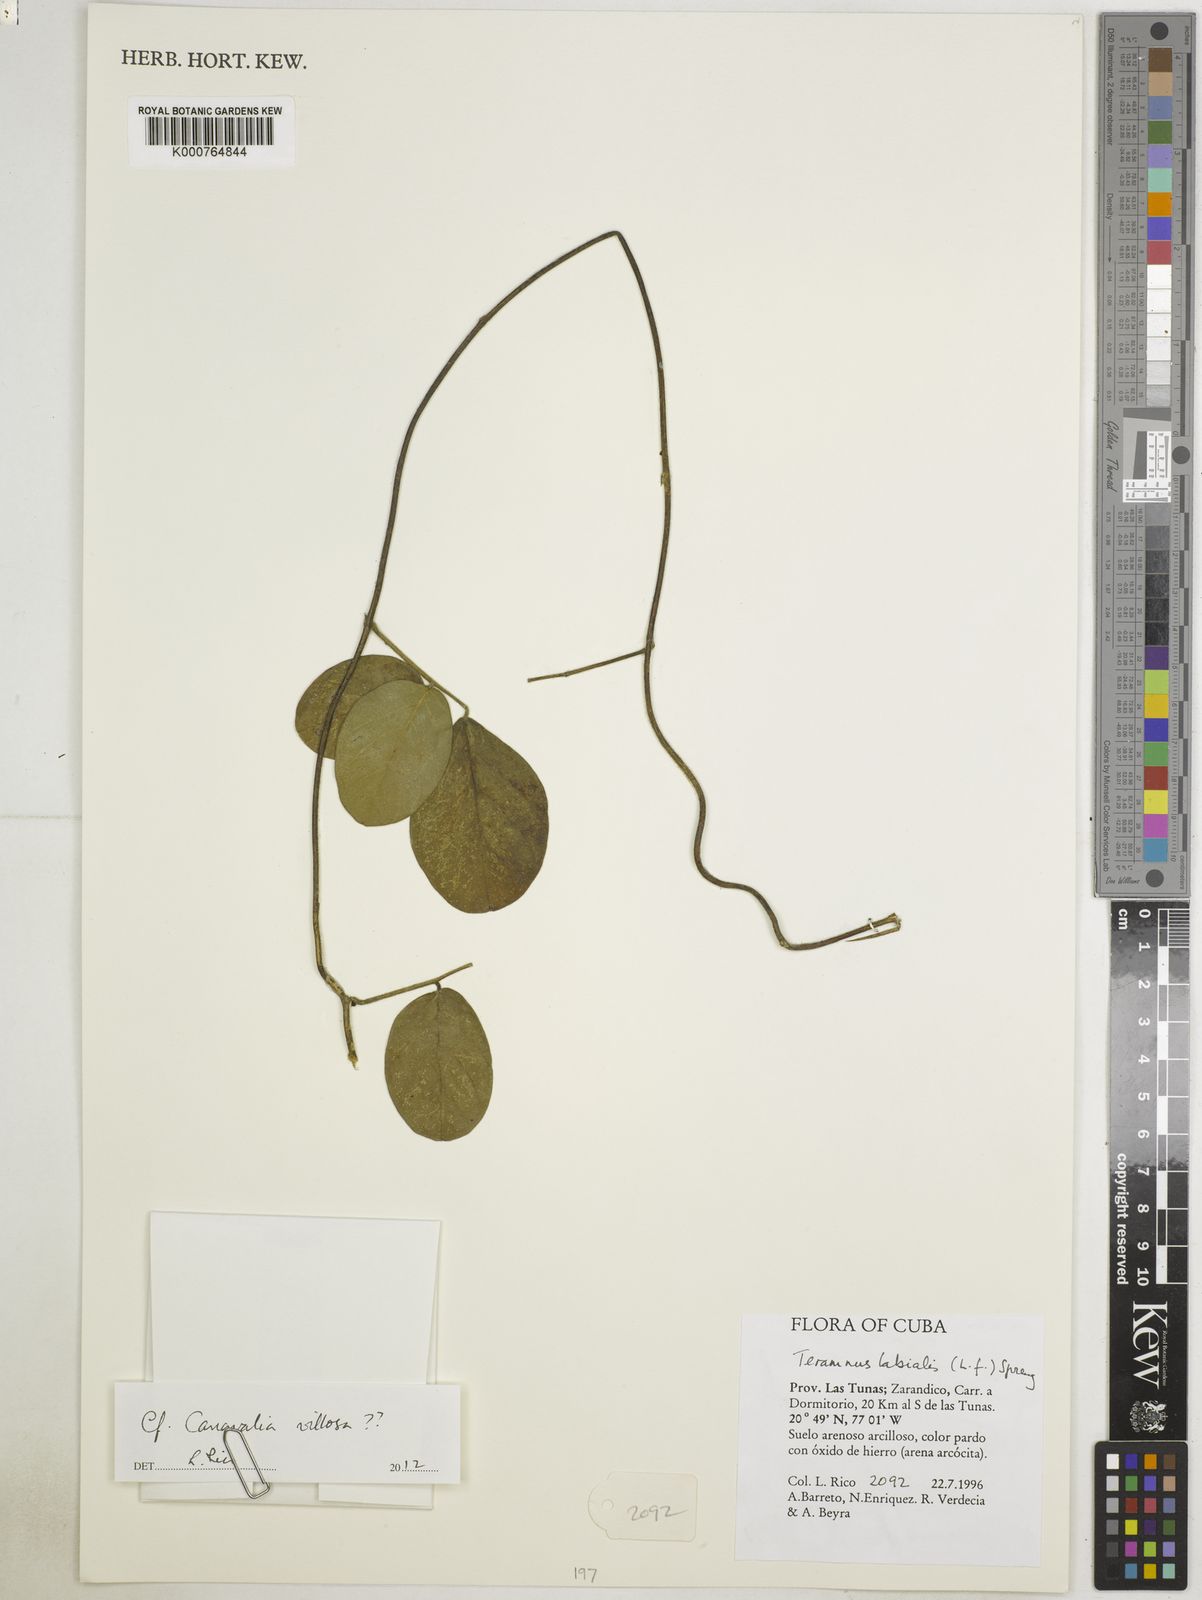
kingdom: Plantae
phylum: Tracheophyta
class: Magnoliopsida
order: Fabales
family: Fabaceae
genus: Canavalia
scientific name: Canavalia villosa
